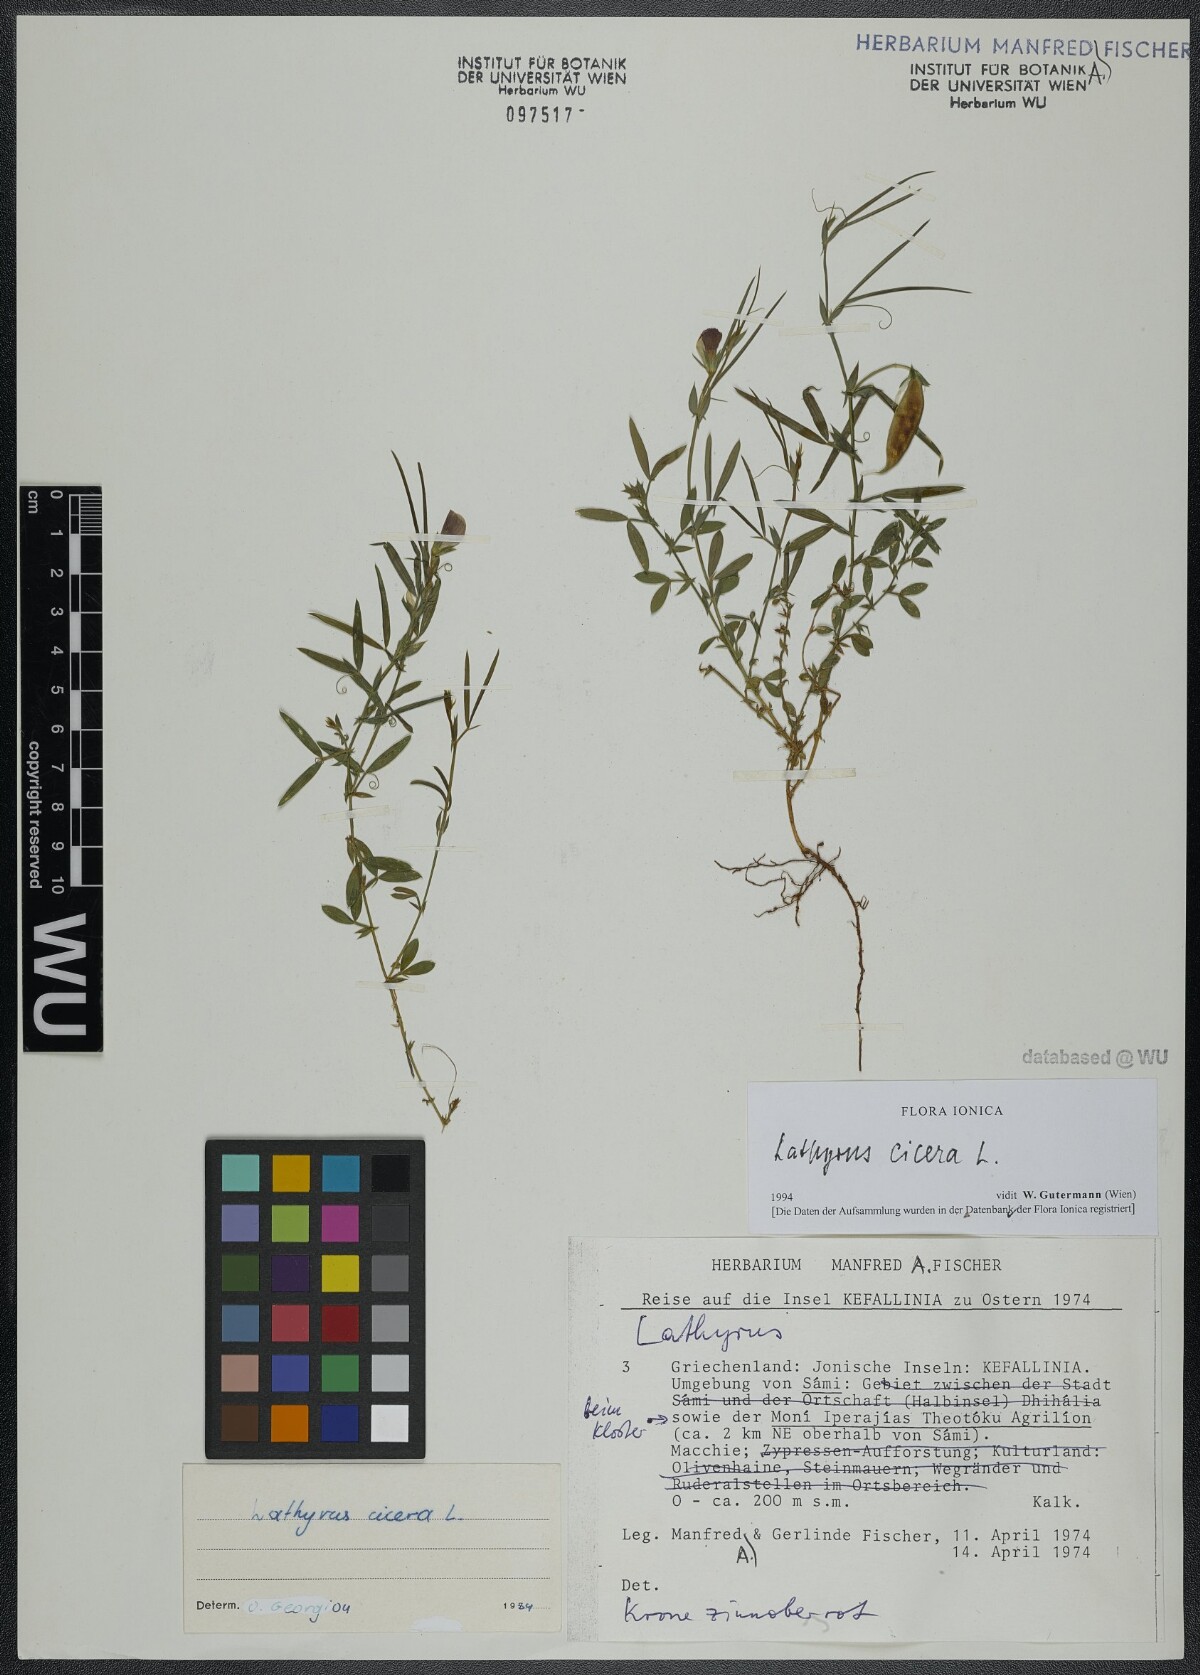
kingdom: Plantae
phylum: Tracheophyta
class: Magnoliopsida
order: Fabales
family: Fabaceae
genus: Lathyrus
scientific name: Lathyrus cicera
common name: Red vetchling
